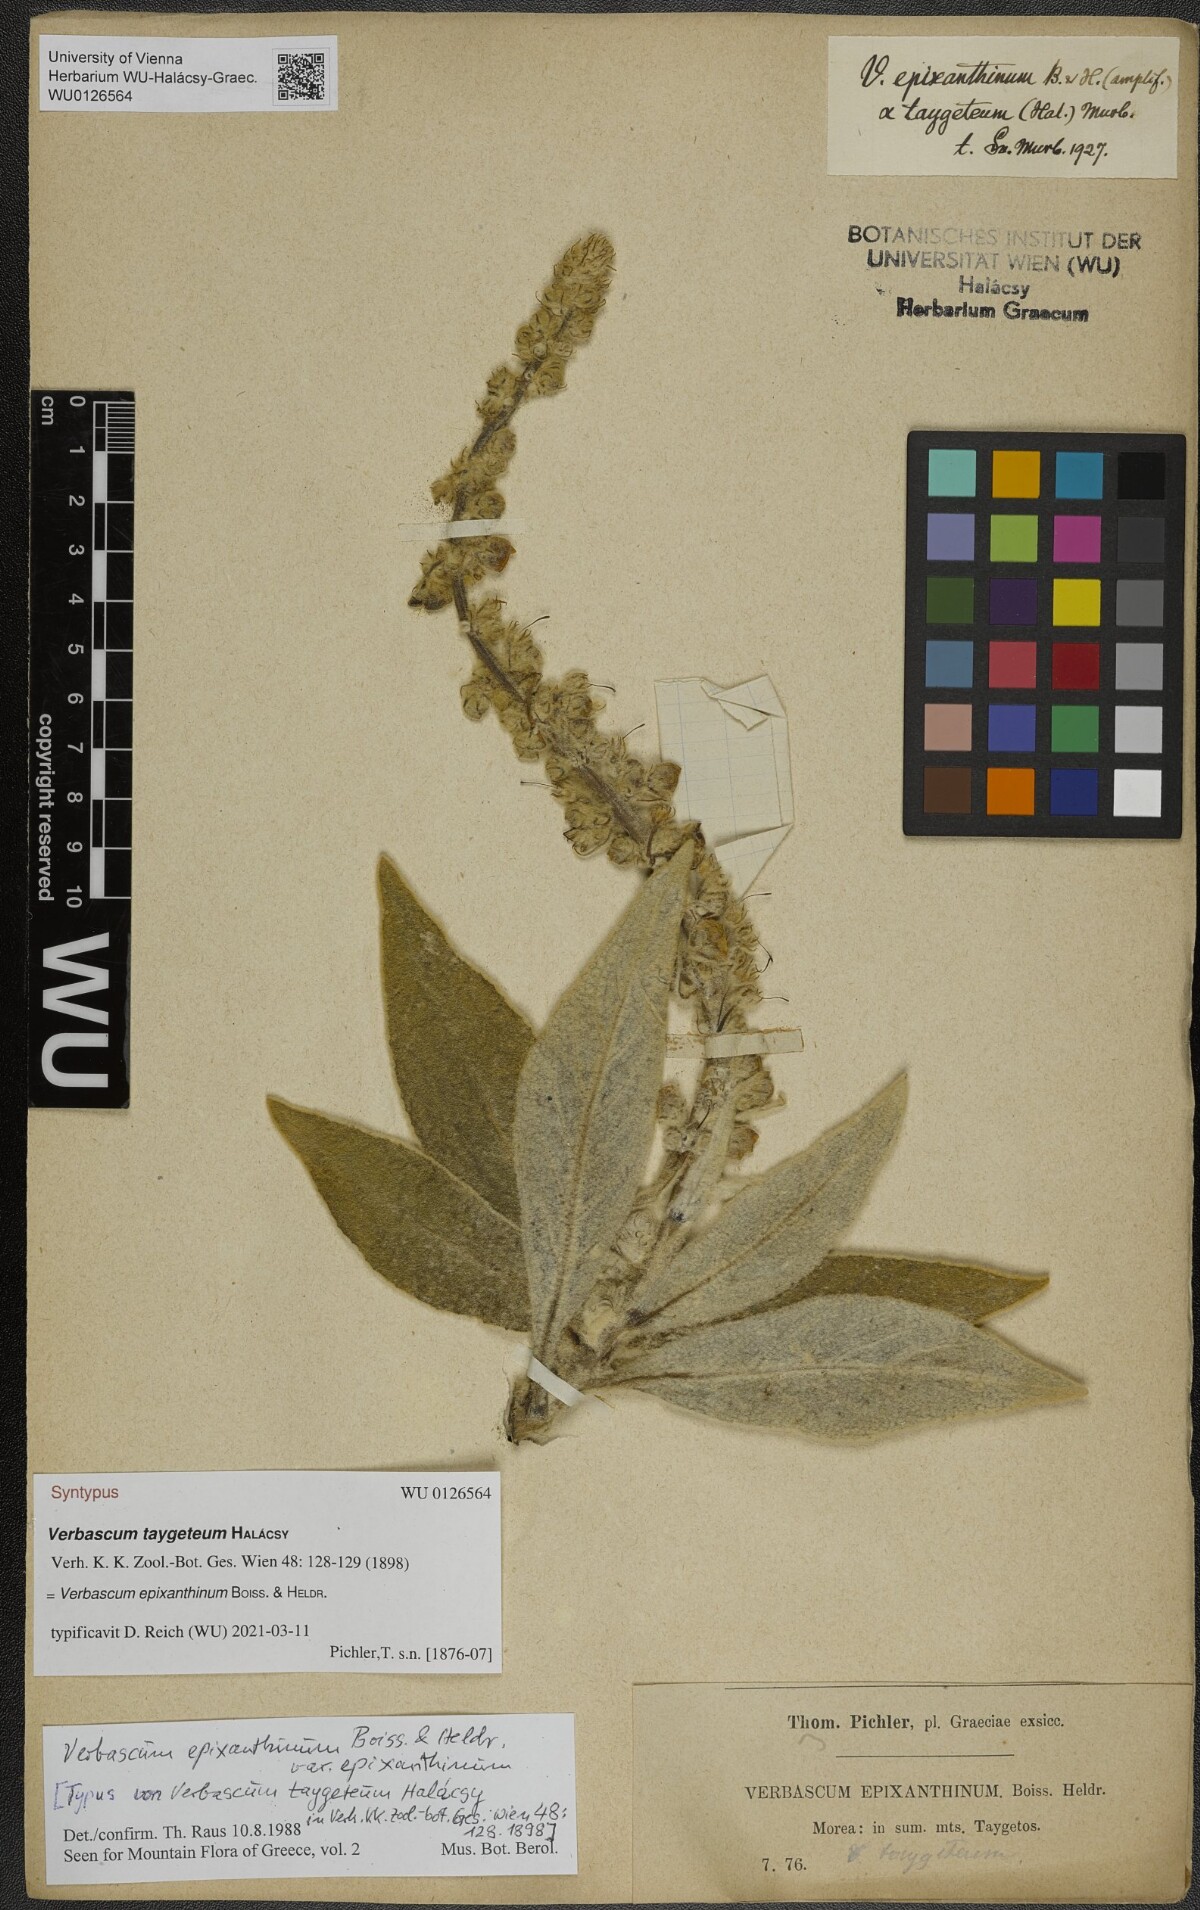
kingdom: Plantae
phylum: Tracheophyta
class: Magnoliopsida
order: Lamiales
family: Scrophulariaceae
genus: Verbascum
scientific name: Verbascum epixanthinum
